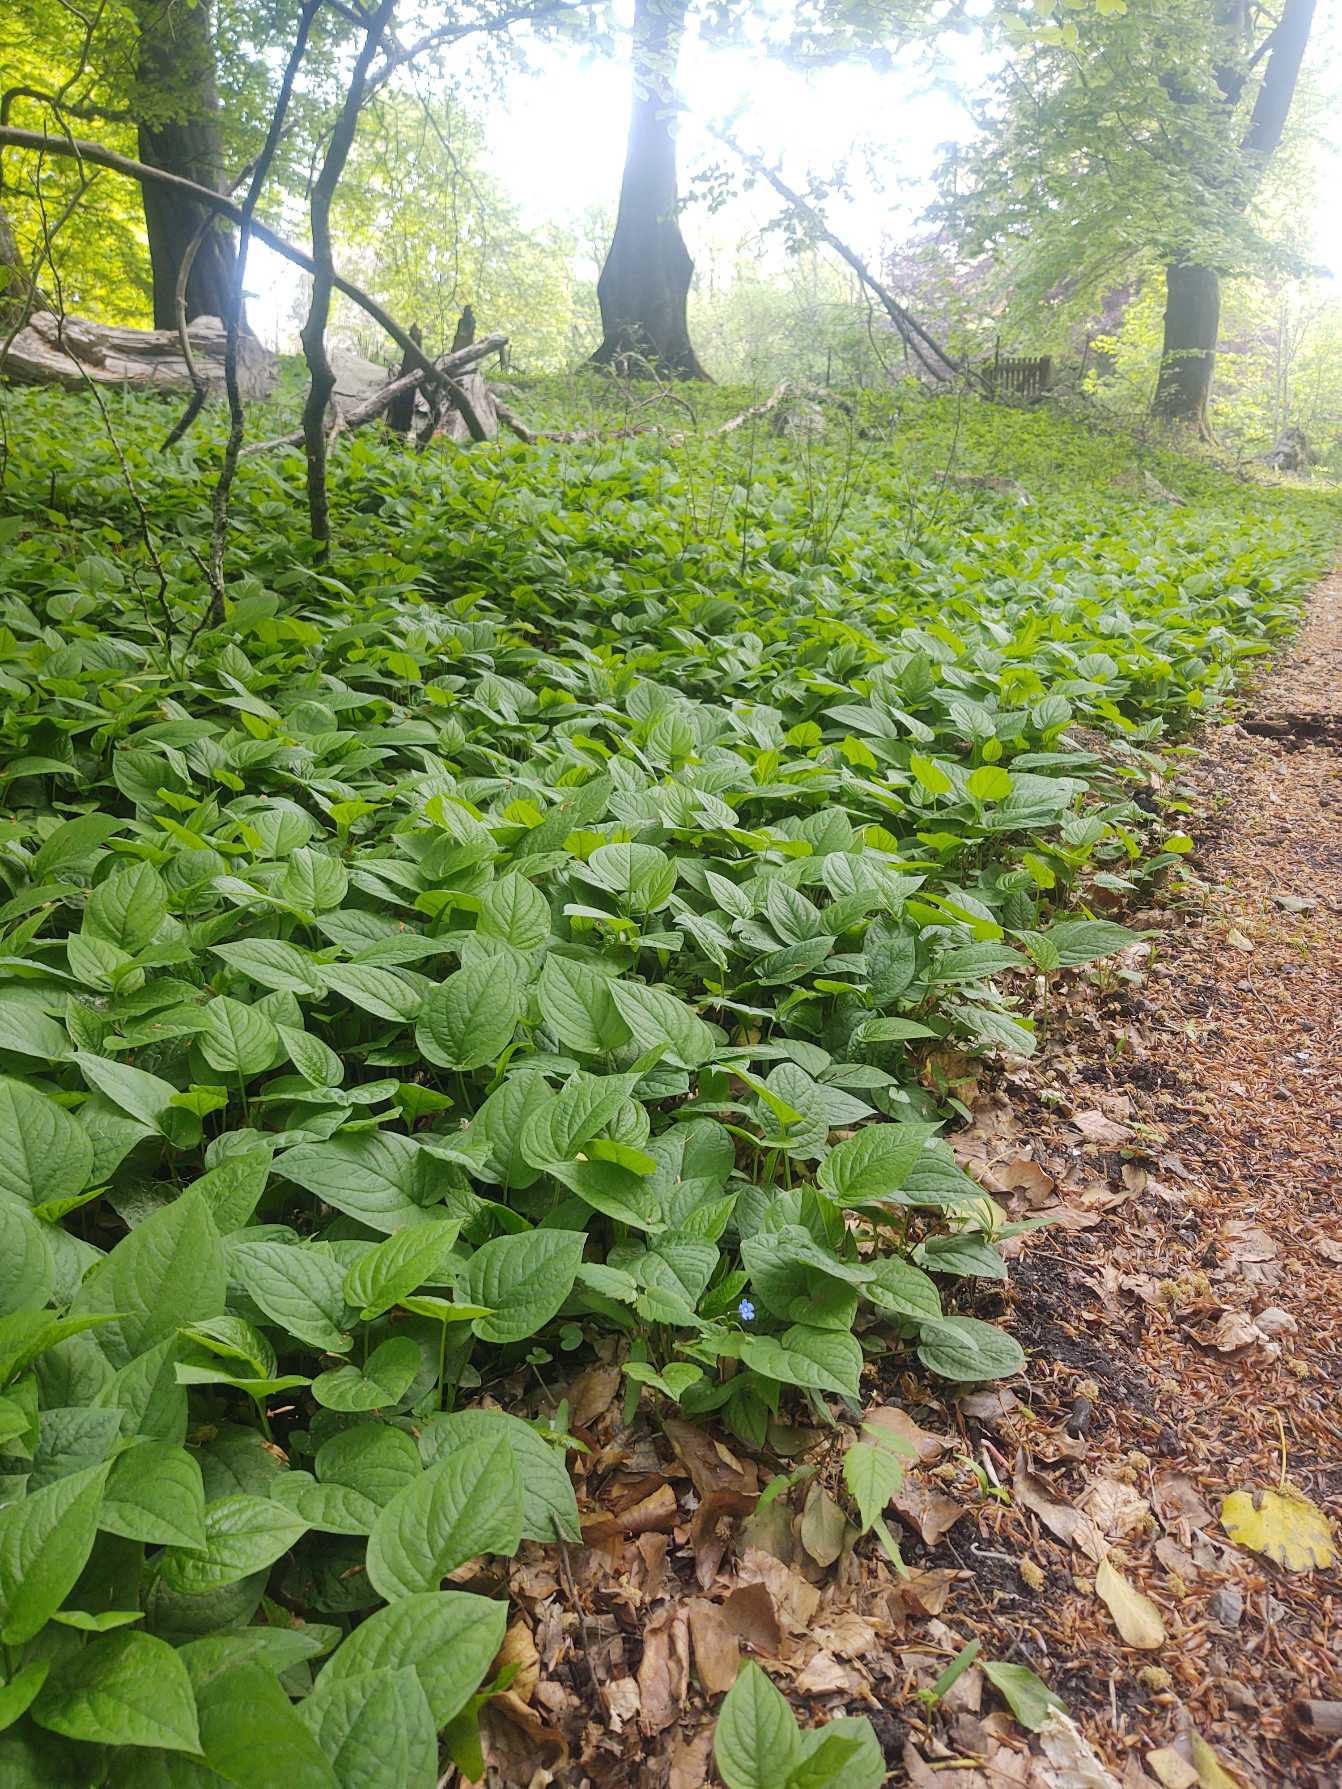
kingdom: Plantae
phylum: Tracheophyta
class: Magnoliopsida
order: Boraginales
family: Boraginaceae
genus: Omphalodes
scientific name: Omphalodes verna
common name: Vår-kærminde
